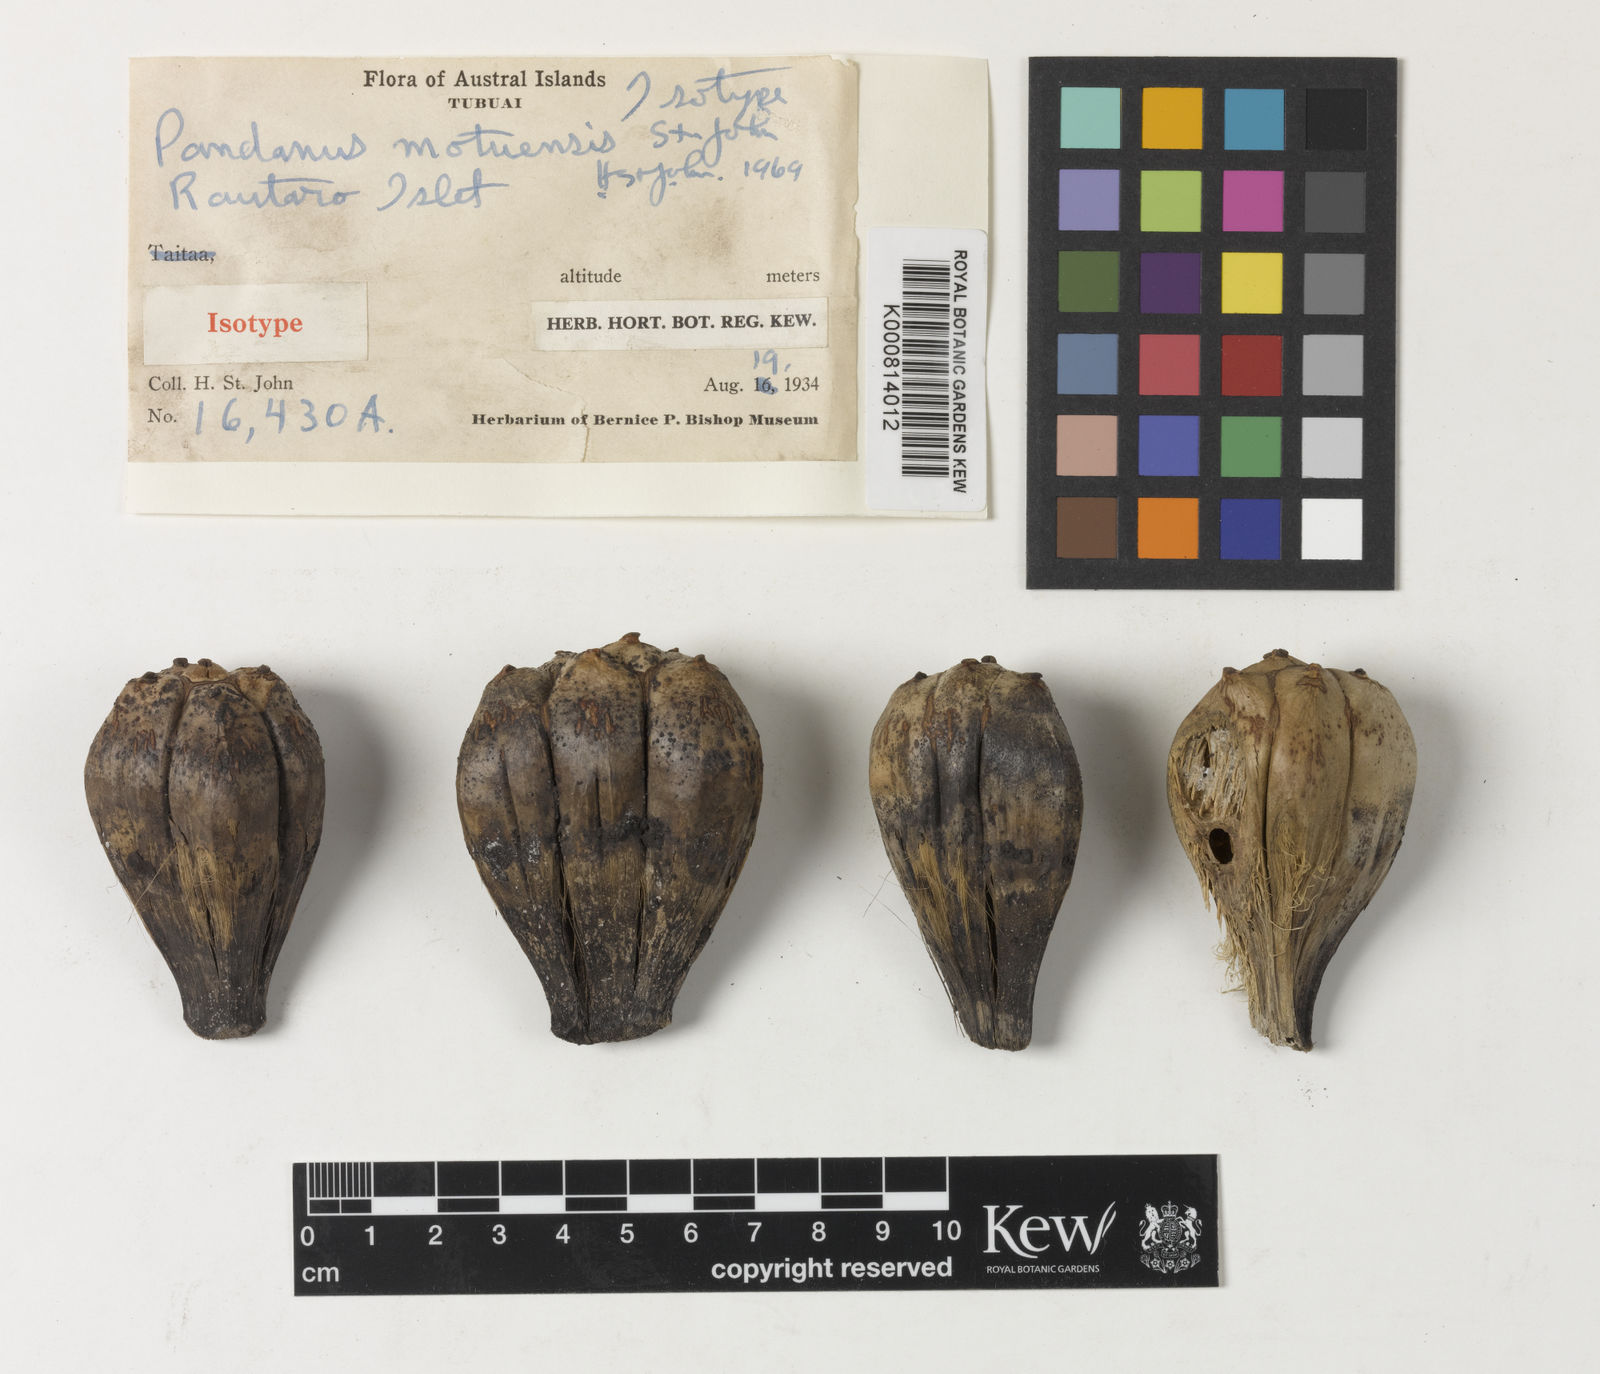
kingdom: Plantae
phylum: Tracheophyta
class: Liliopsida
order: Pandanales
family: Pandanaceae
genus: Pandanus
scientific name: Pandanus
